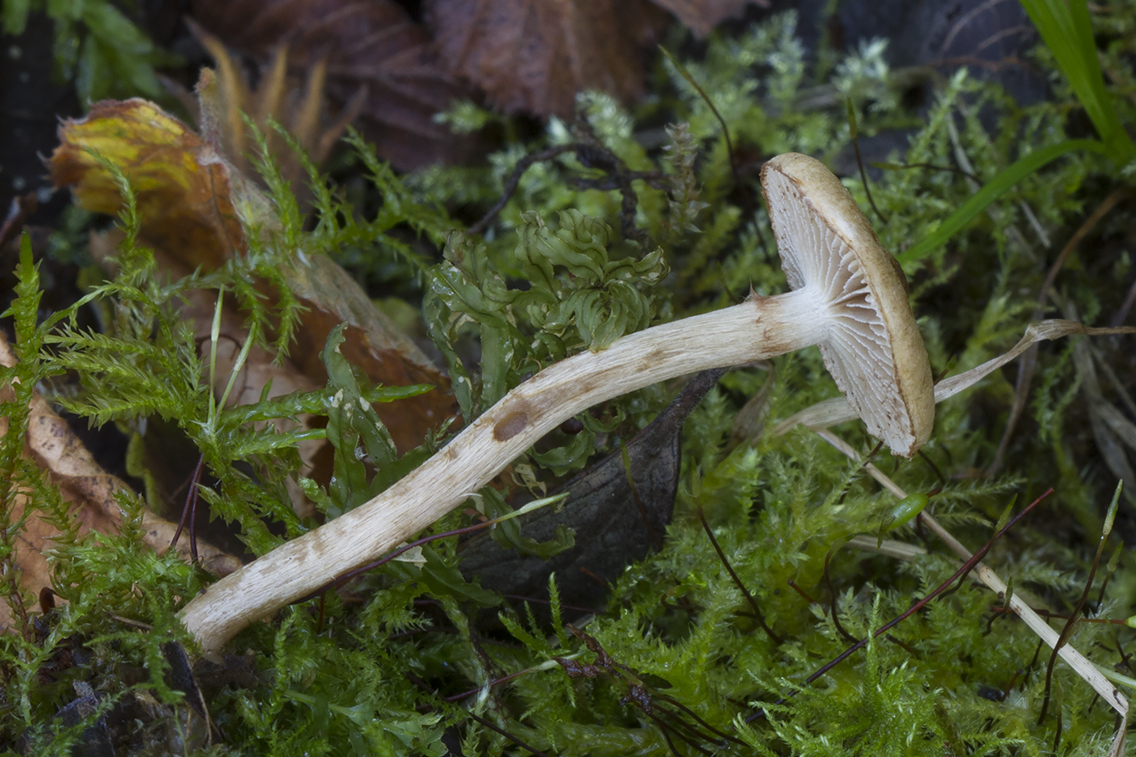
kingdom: Fungi
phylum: Basidiomycota
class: Agaricomycetes
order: Agaricales
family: Inocybaceae
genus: Mallocybe
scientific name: Mallocybe
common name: Trævlhat
